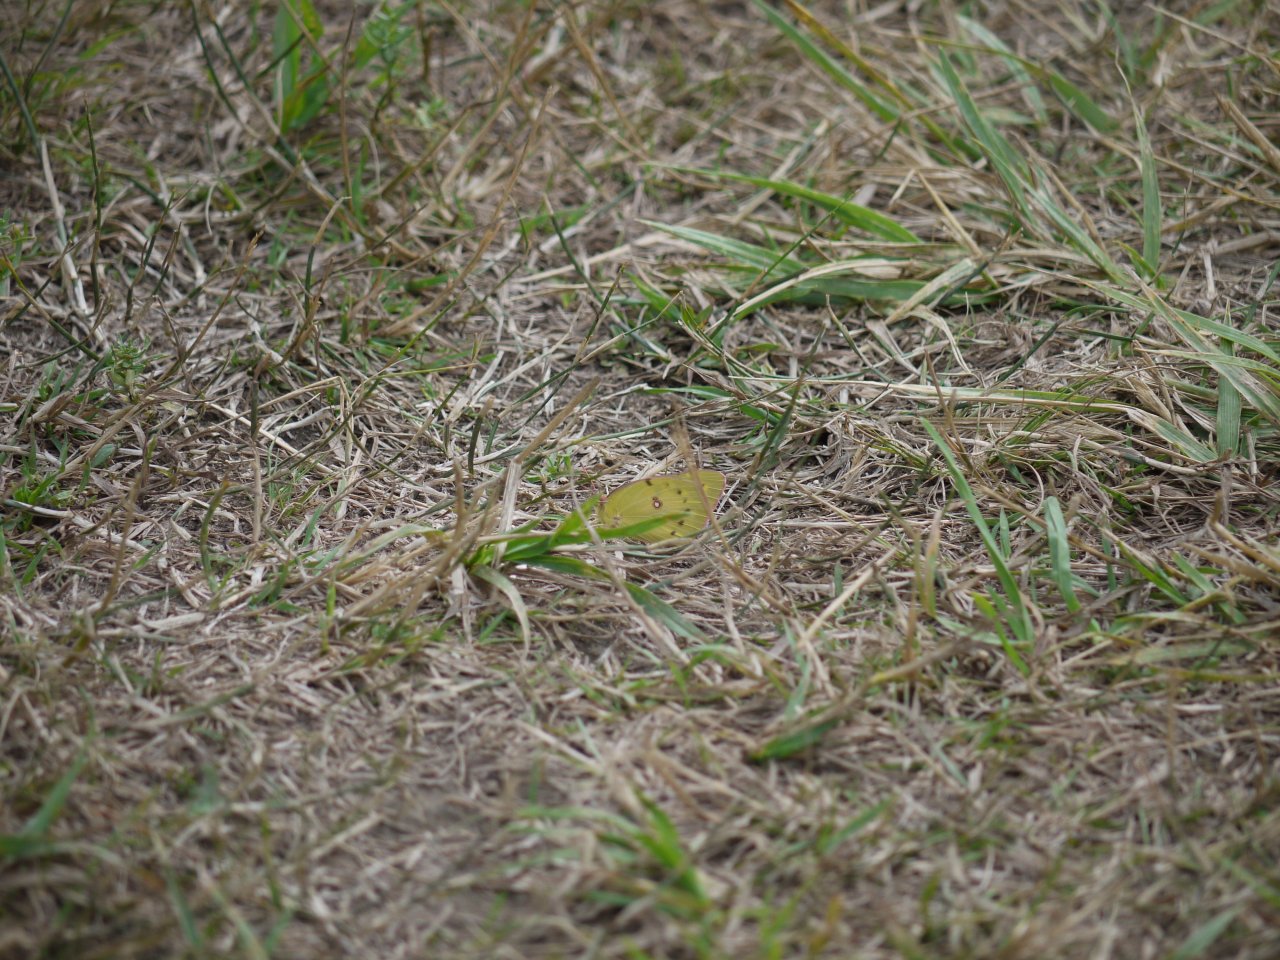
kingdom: Animalia
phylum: Arthropoda
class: Insecta
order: Lepidoptera
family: Pieridae
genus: Colias
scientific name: Colias philodice
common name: Clouded Sulphur
